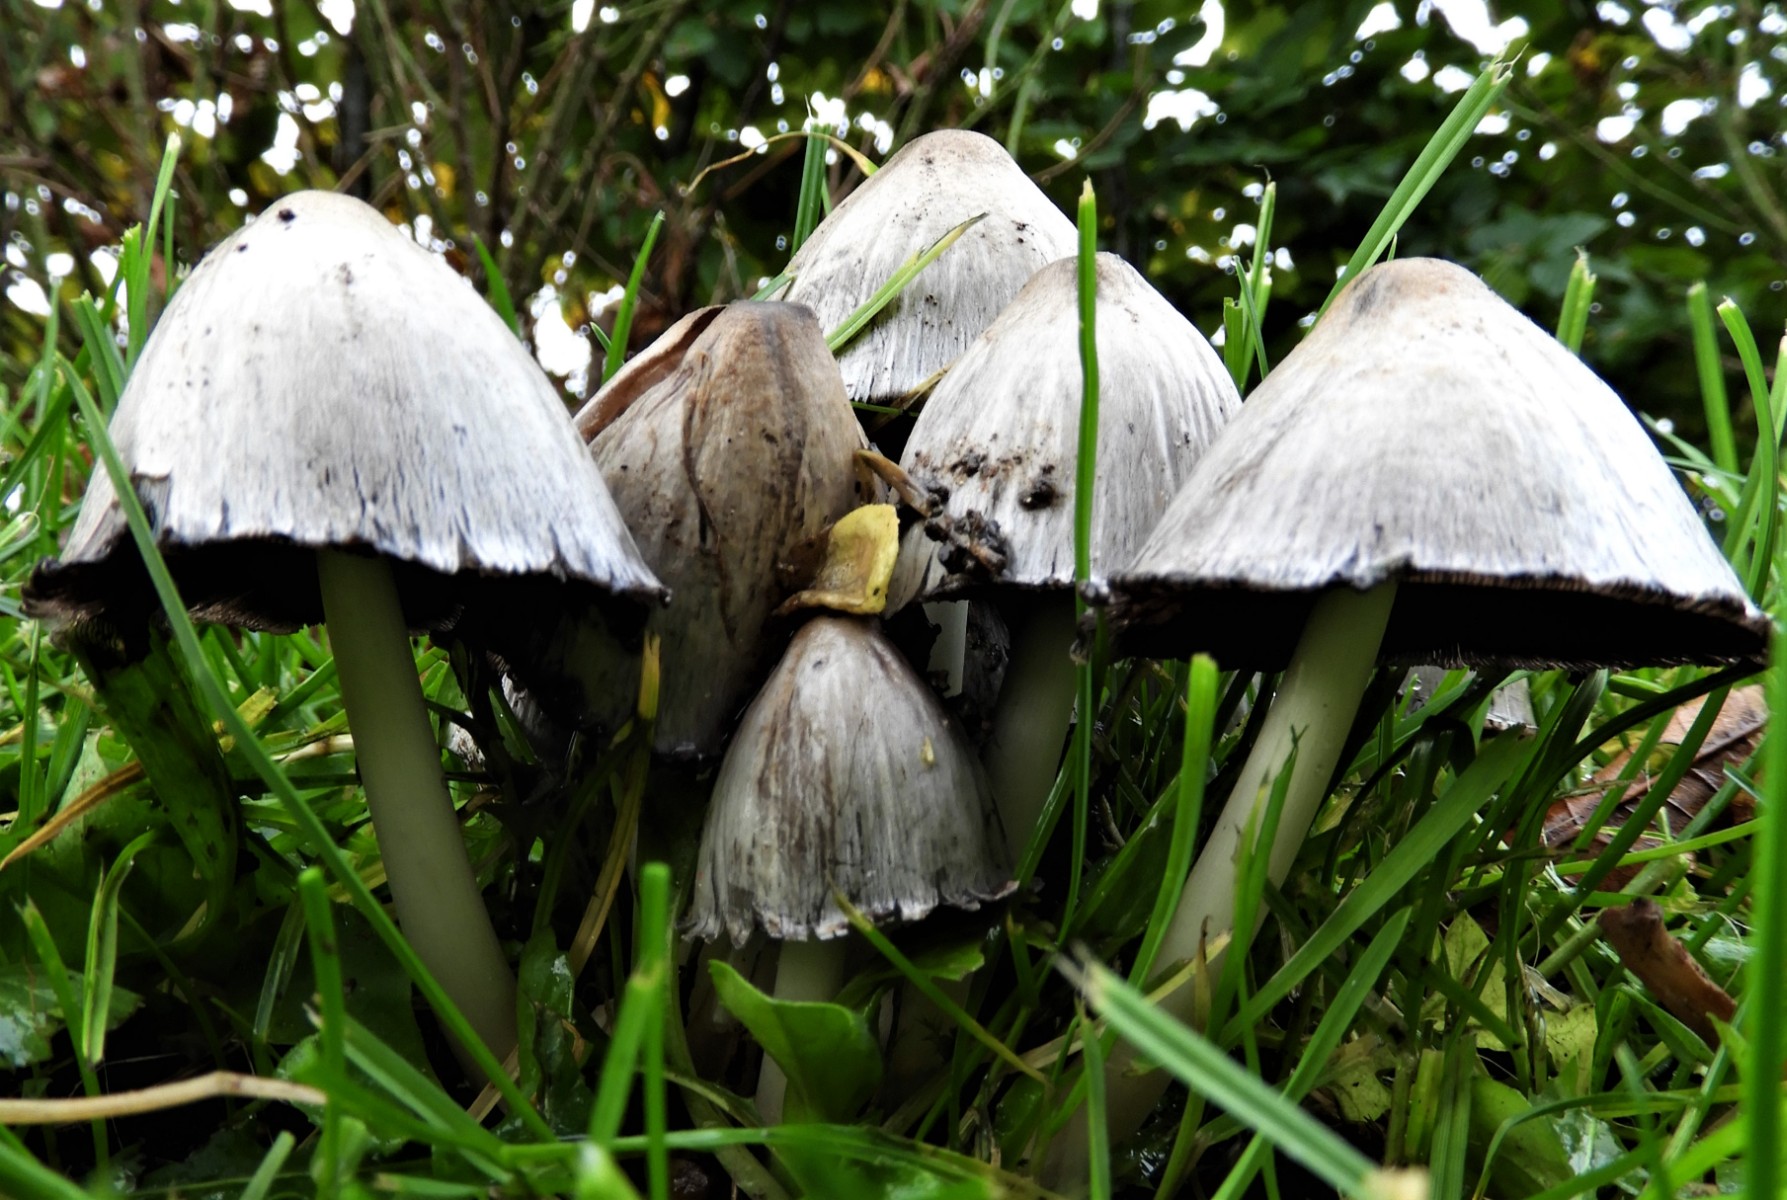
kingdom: Fungi
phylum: Basidiomycota
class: Agaricomycetes
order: Agaricales
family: Psathyrellaceae
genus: Coprinopsis
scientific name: Coprinopsis atramentaria
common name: almindelig blækhat
